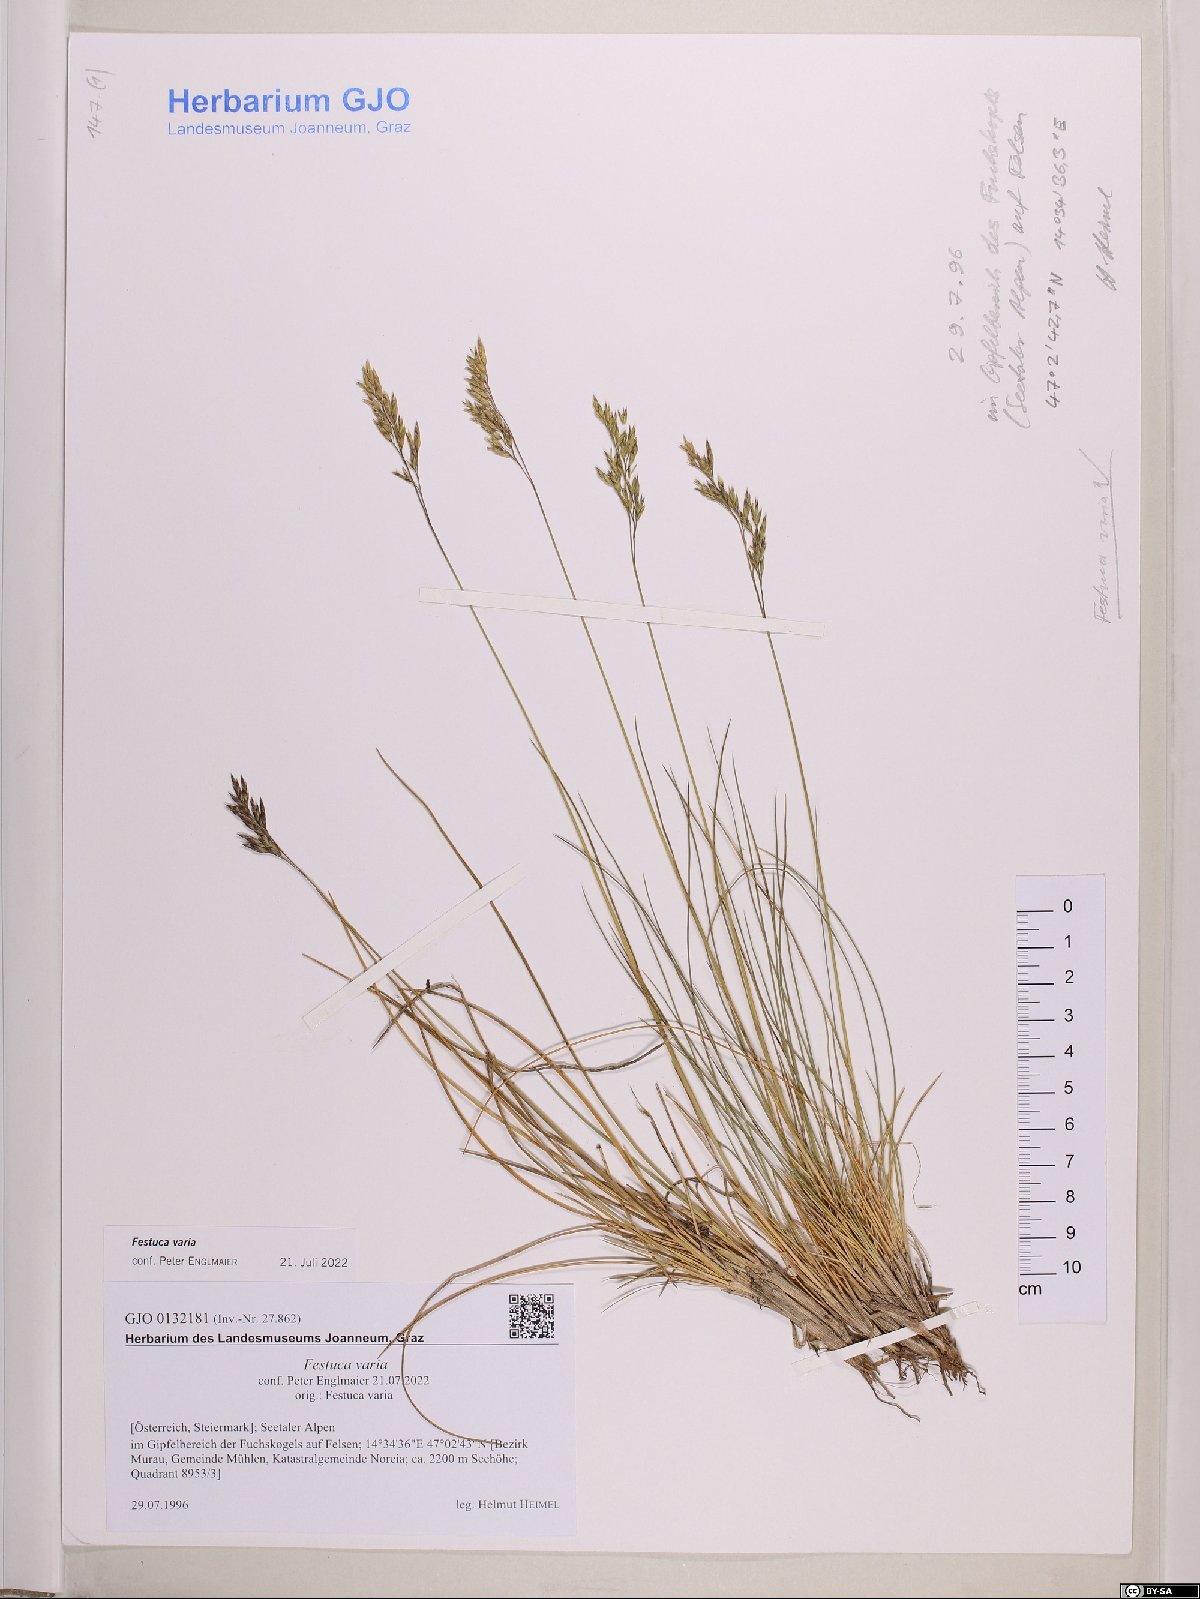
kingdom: Plantae
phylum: Tracheophyta
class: Liliopsida
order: Poales
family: Poaceae
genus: Festuca
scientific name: Festuca varia
